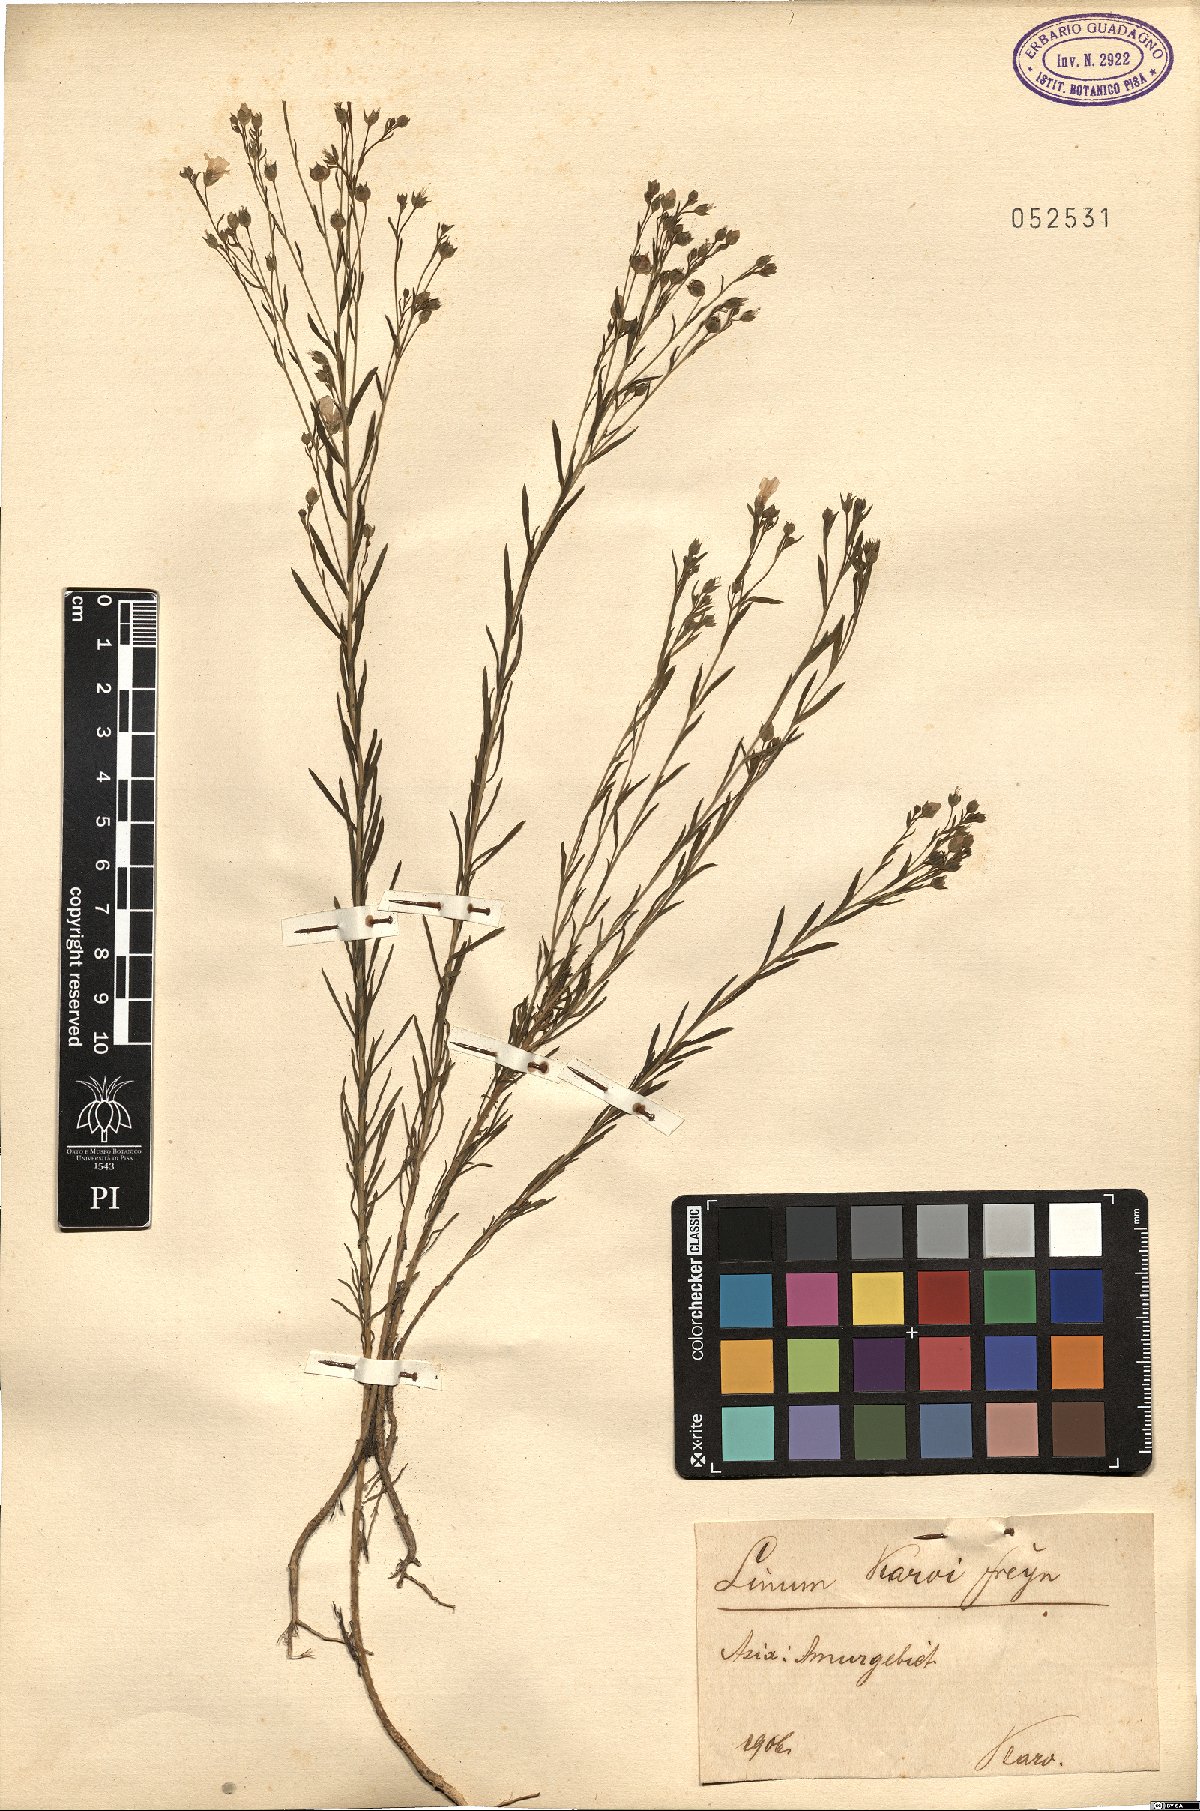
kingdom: Plantae
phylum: Tracheophyta
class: Magnoliopsida
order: Malpighiales
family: Linaceae
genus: Linum
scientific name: Linum stelleroides
